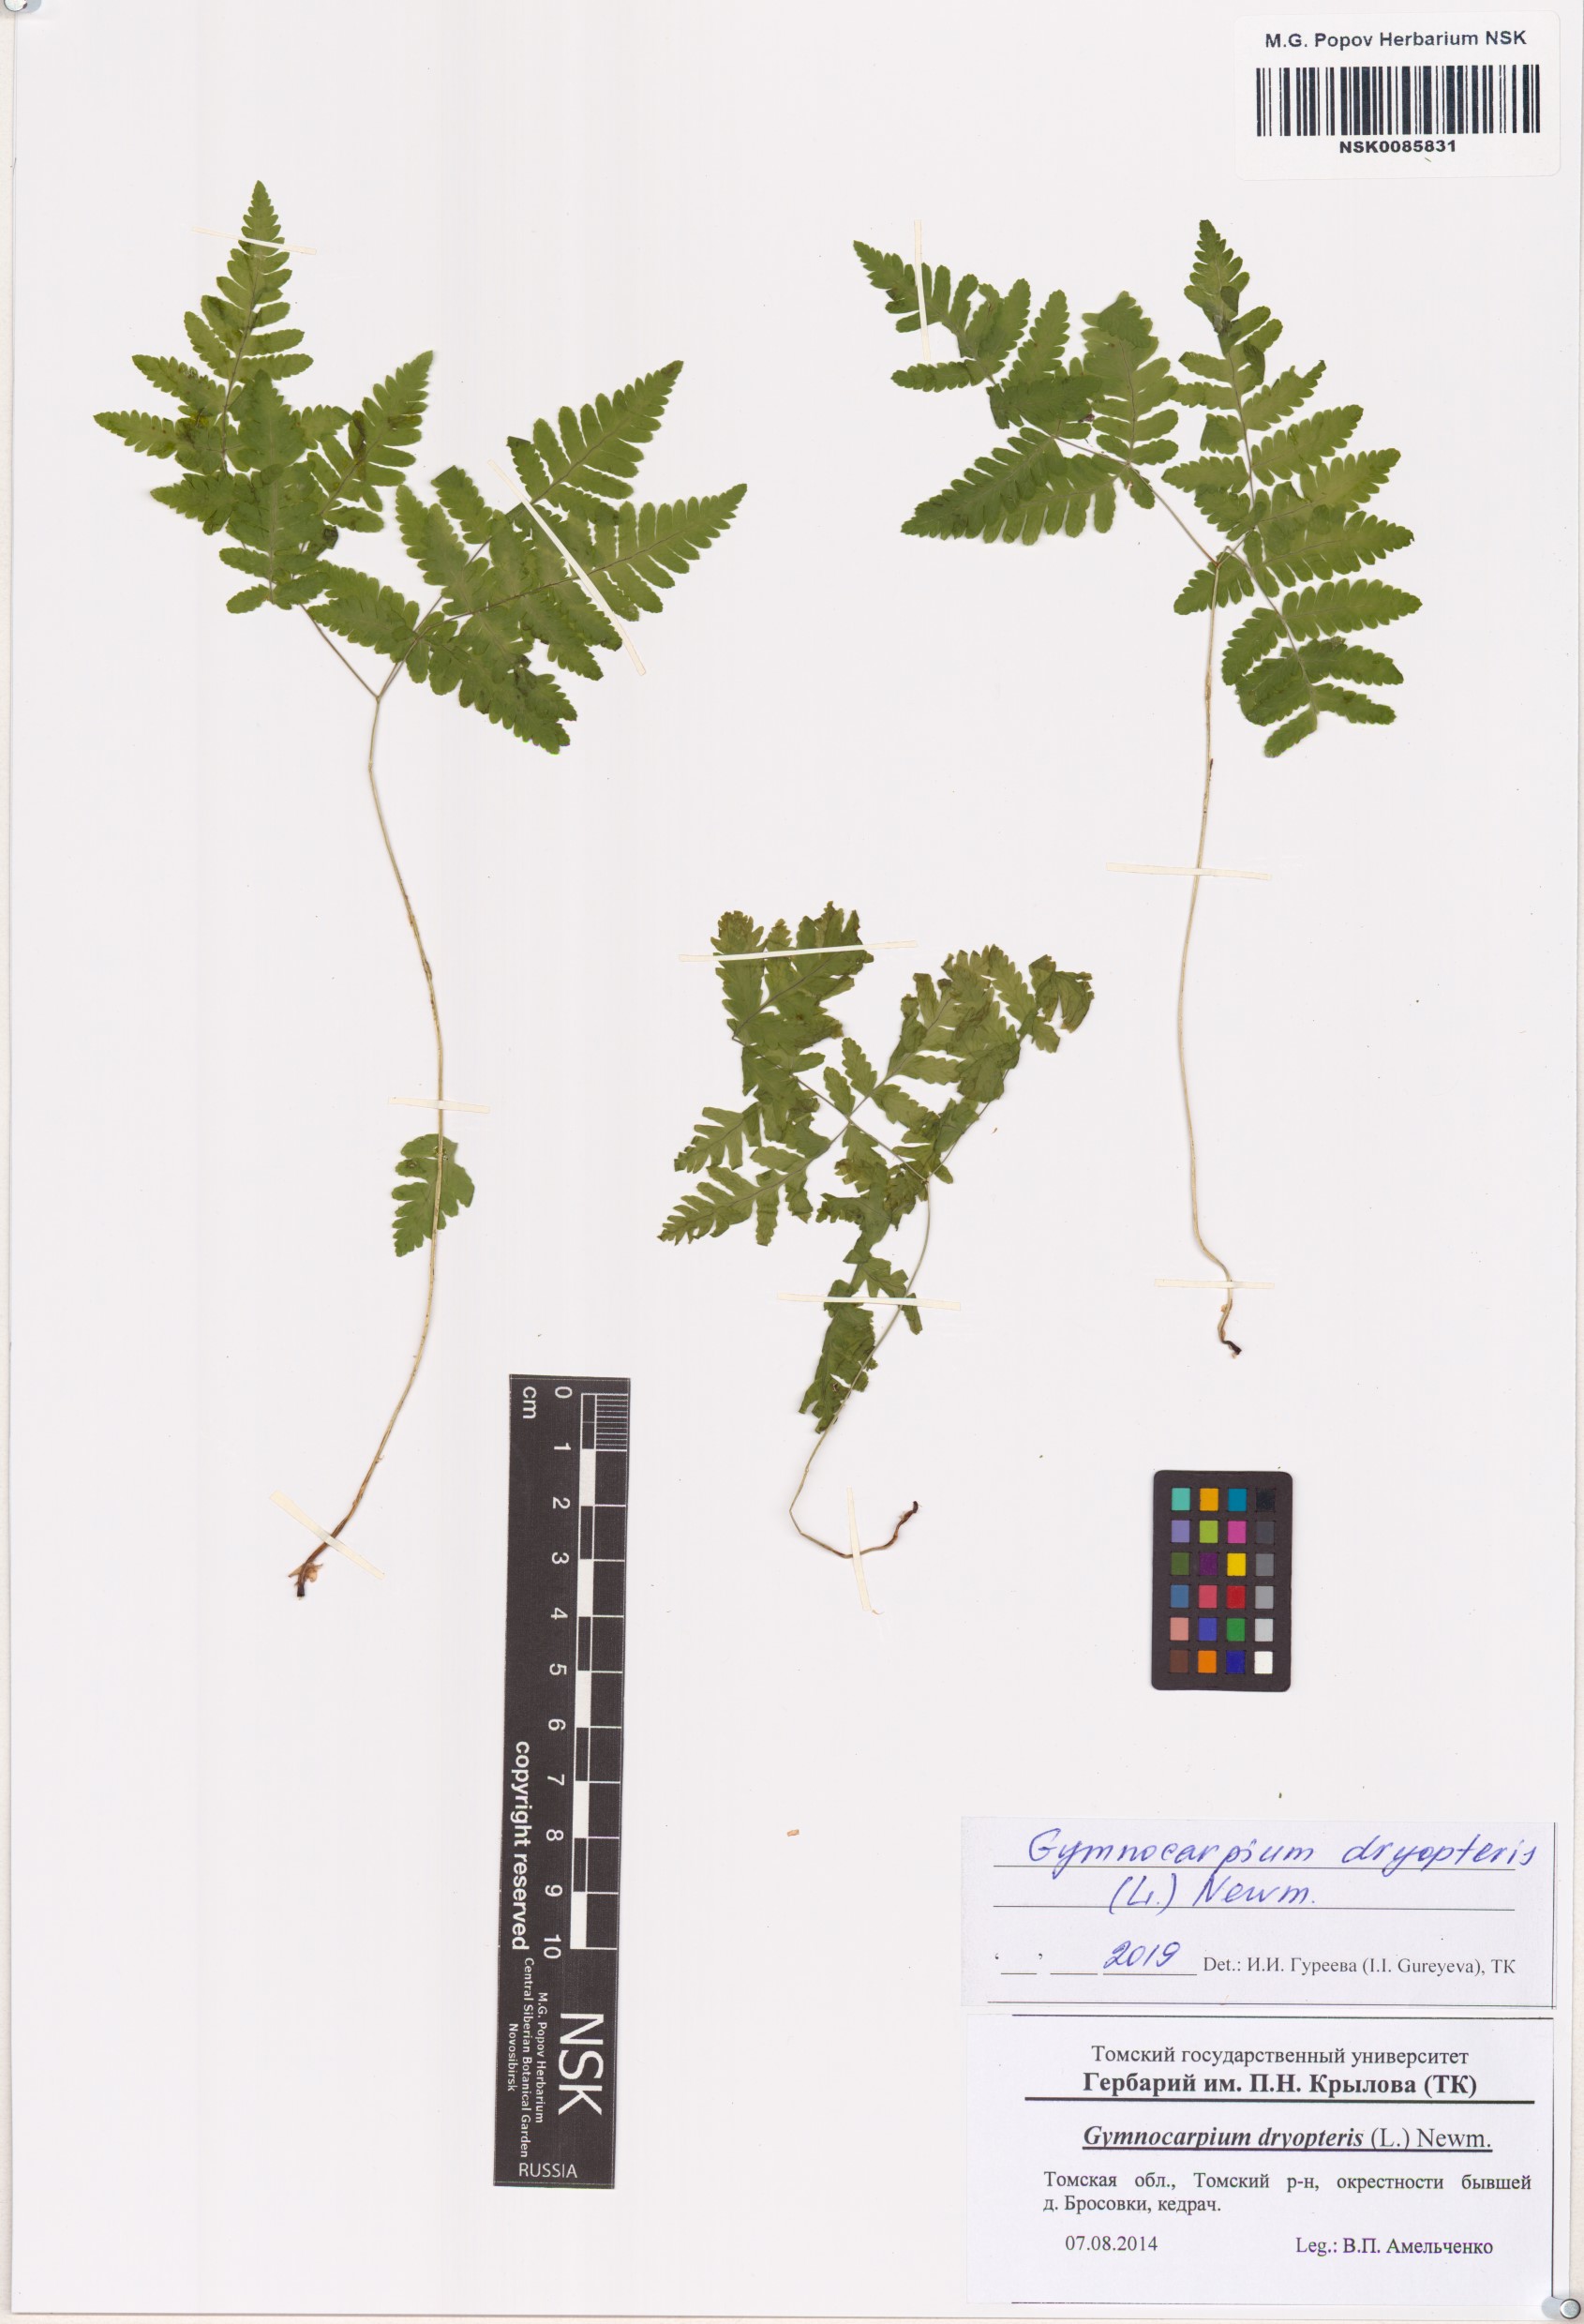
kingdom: Plantae
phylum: Tracheophyta
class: Polypodiopsida
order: Polypodiales
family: Cystopteridaceae
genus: Gymnocarpium
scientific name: Gymnocarpium dryopteris
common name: Oak fern
